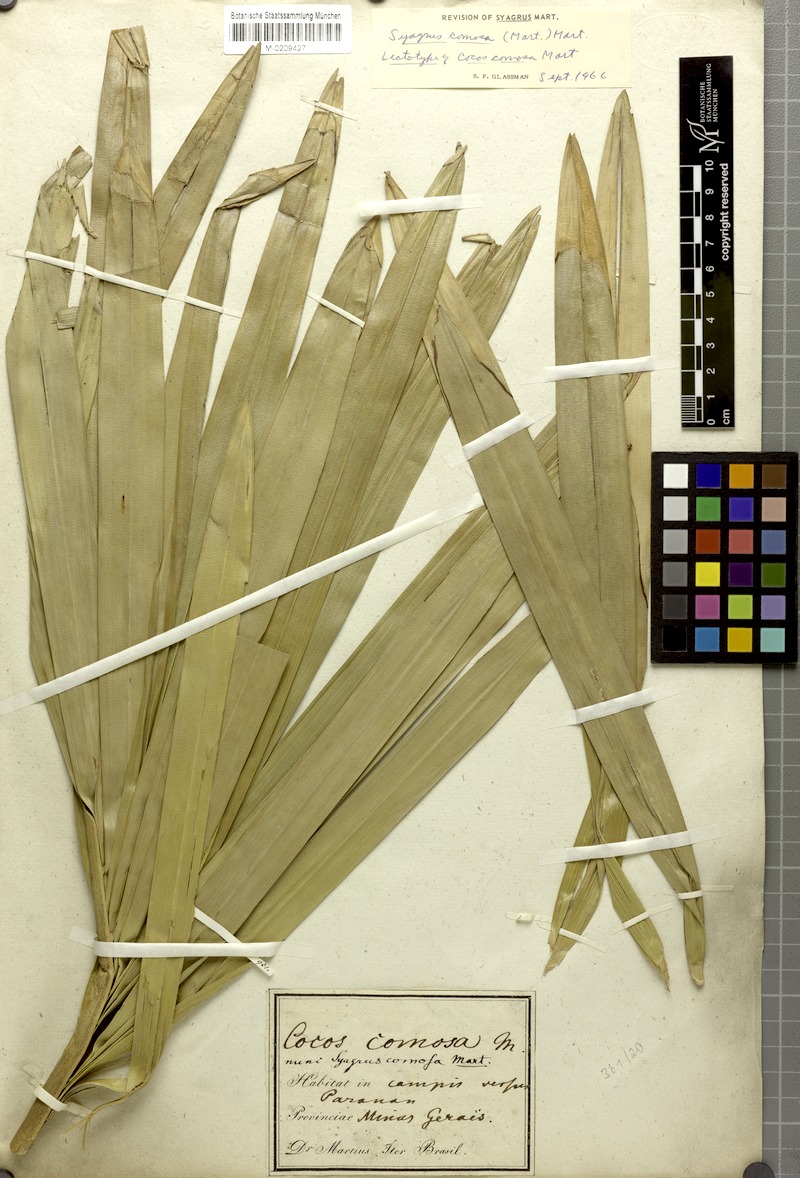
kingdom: Plantae
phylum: Tracheophyta
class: Liliopsida
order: Arecales
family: Arecaceae
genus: Syagrus
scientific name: Syagrus comosa
